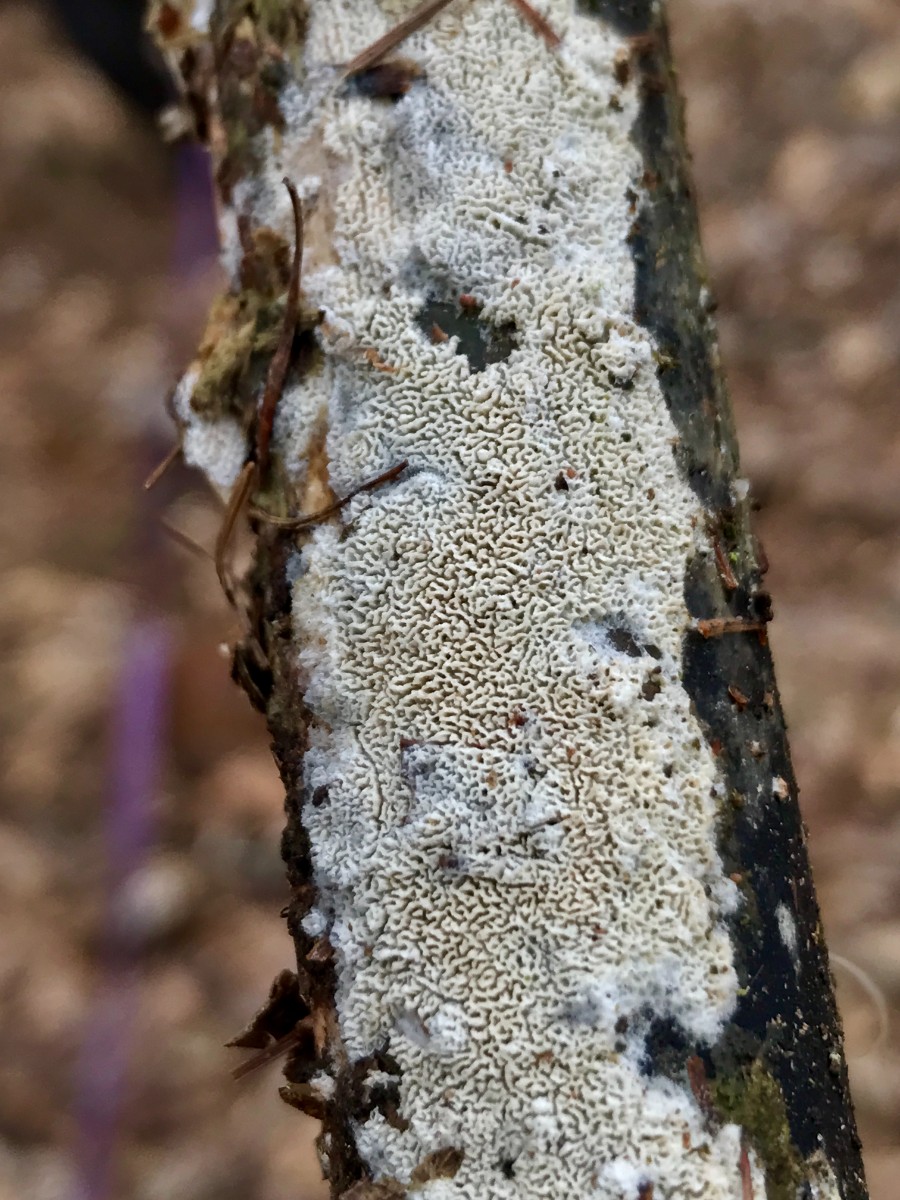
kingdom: Fungi
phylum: Basidiomycota
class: Agaricomycetes
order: Hymenochaetales
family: Schizoporaceae
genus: Xylodon
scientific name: Xylodon subtropicus
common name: labyrint-tandsvamp
